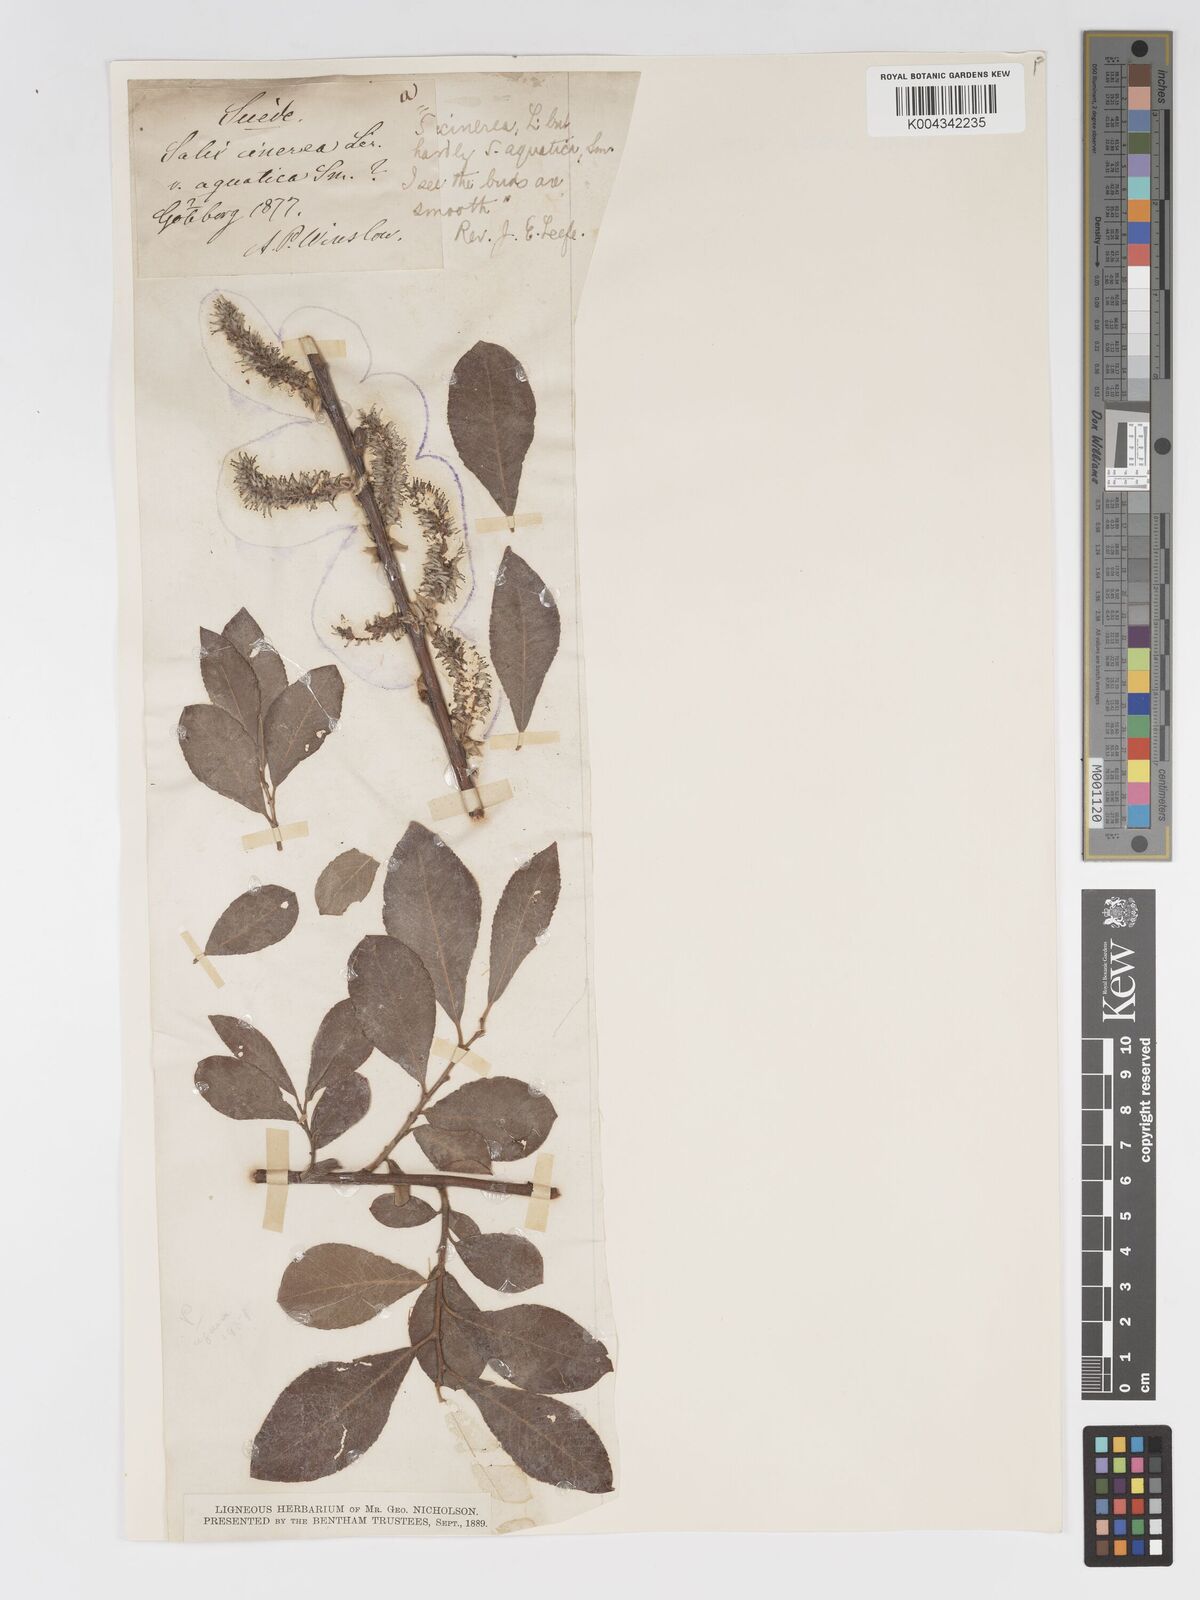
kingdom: Plantae
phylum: Tracheophyta
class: Magnoliopsida
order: Malpighiales
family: Salicaceae
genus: Salix
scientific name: Salix
